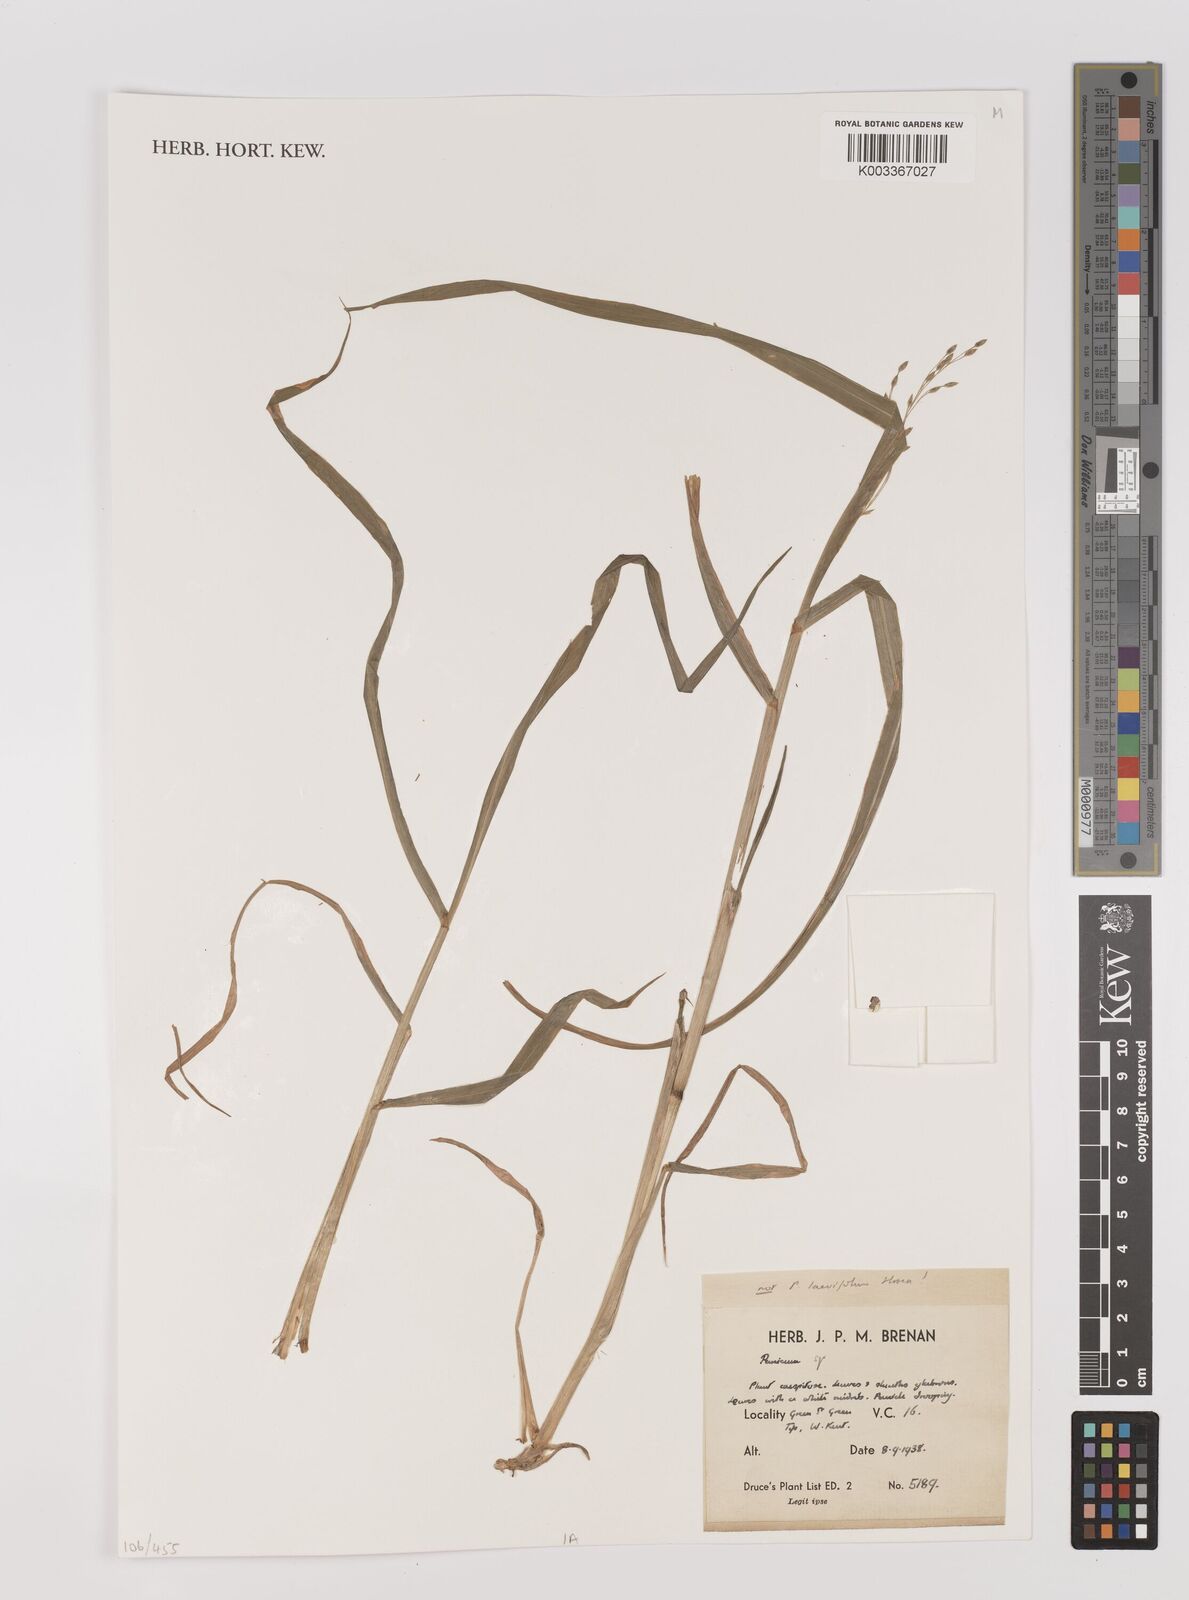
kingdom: Plantae
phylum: Tracheophyta
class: Liliopsida
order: Poales
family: Poaceae
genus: Panicum
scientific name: Panicum
